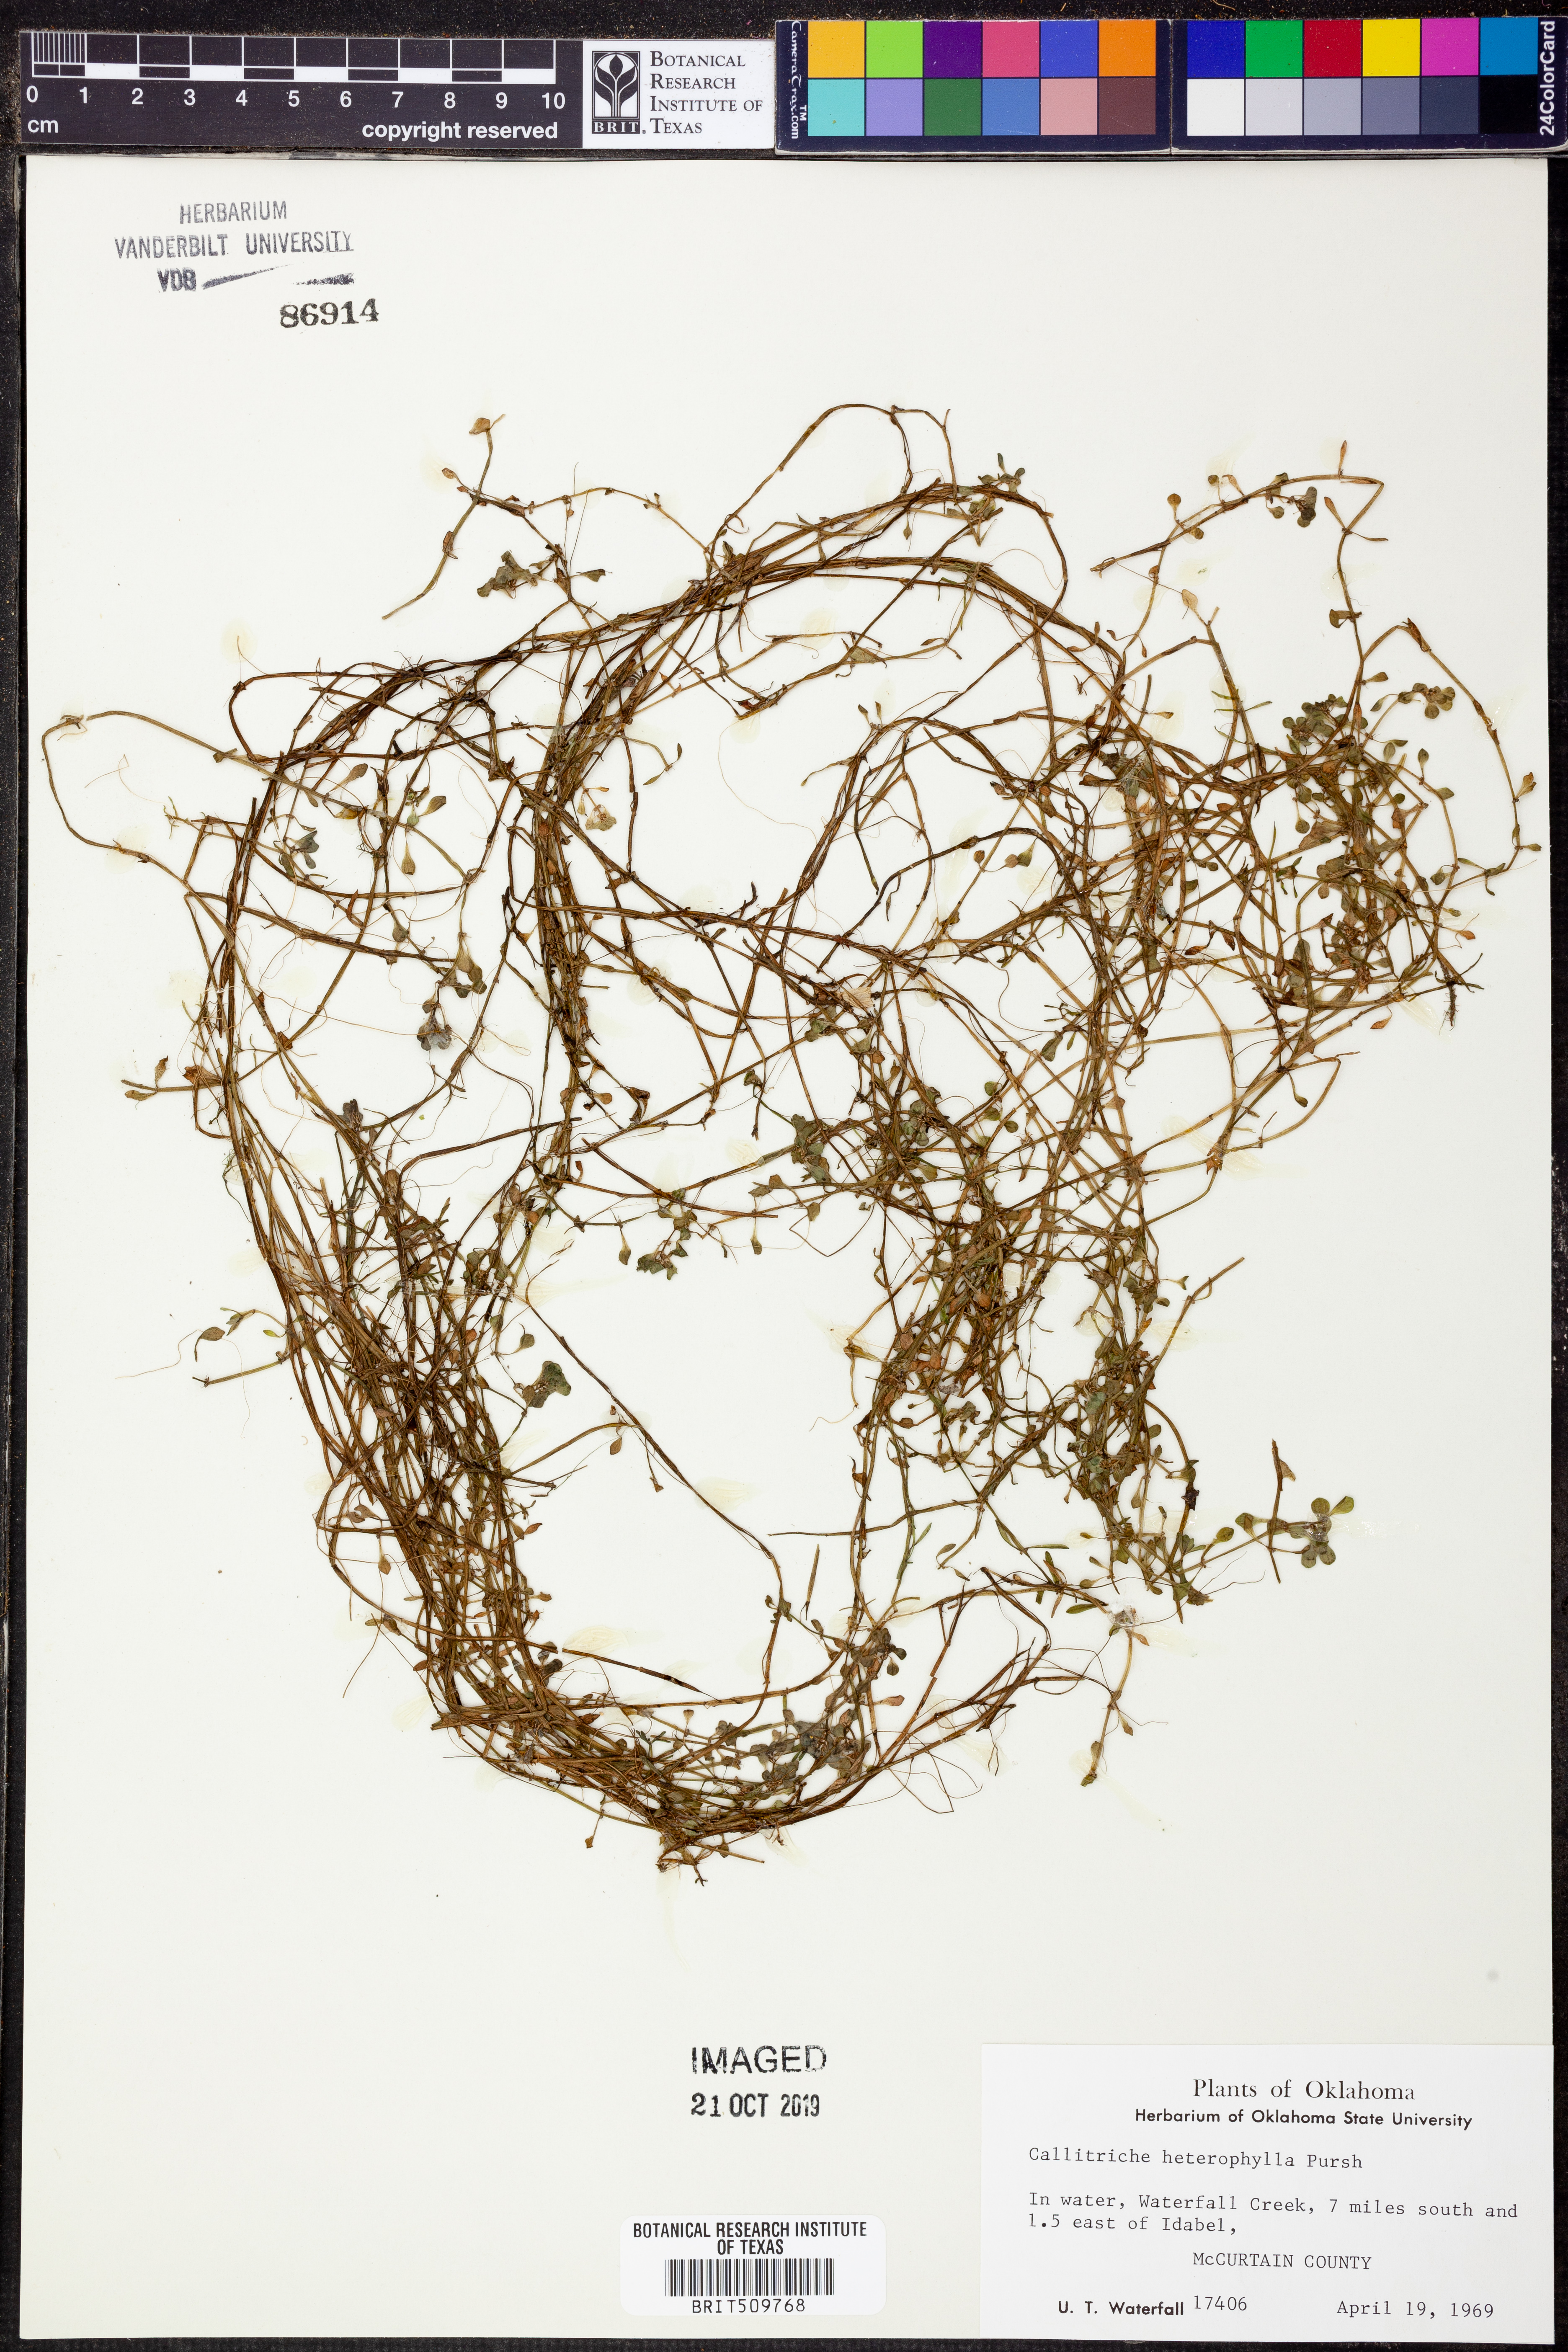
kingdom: Plantae
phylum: Tracheophyta
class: Magnoliopsida
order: Lamiales
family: Plantaginaceae
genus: Callitriche
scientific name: Callitriche heterophylla
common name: Two-headed water-starwort
